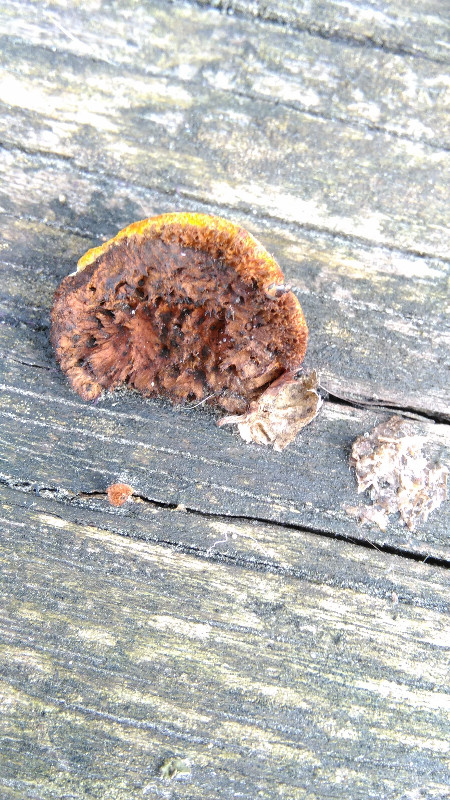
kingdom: Fungi
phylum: Basidiomycota
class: Agaricomycetes
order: Gloeophyllales
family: Gloeophyllaceae
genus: Gloeophyllum
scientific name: Gloeophyllum sepiarium
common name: fyrre-korkhat
